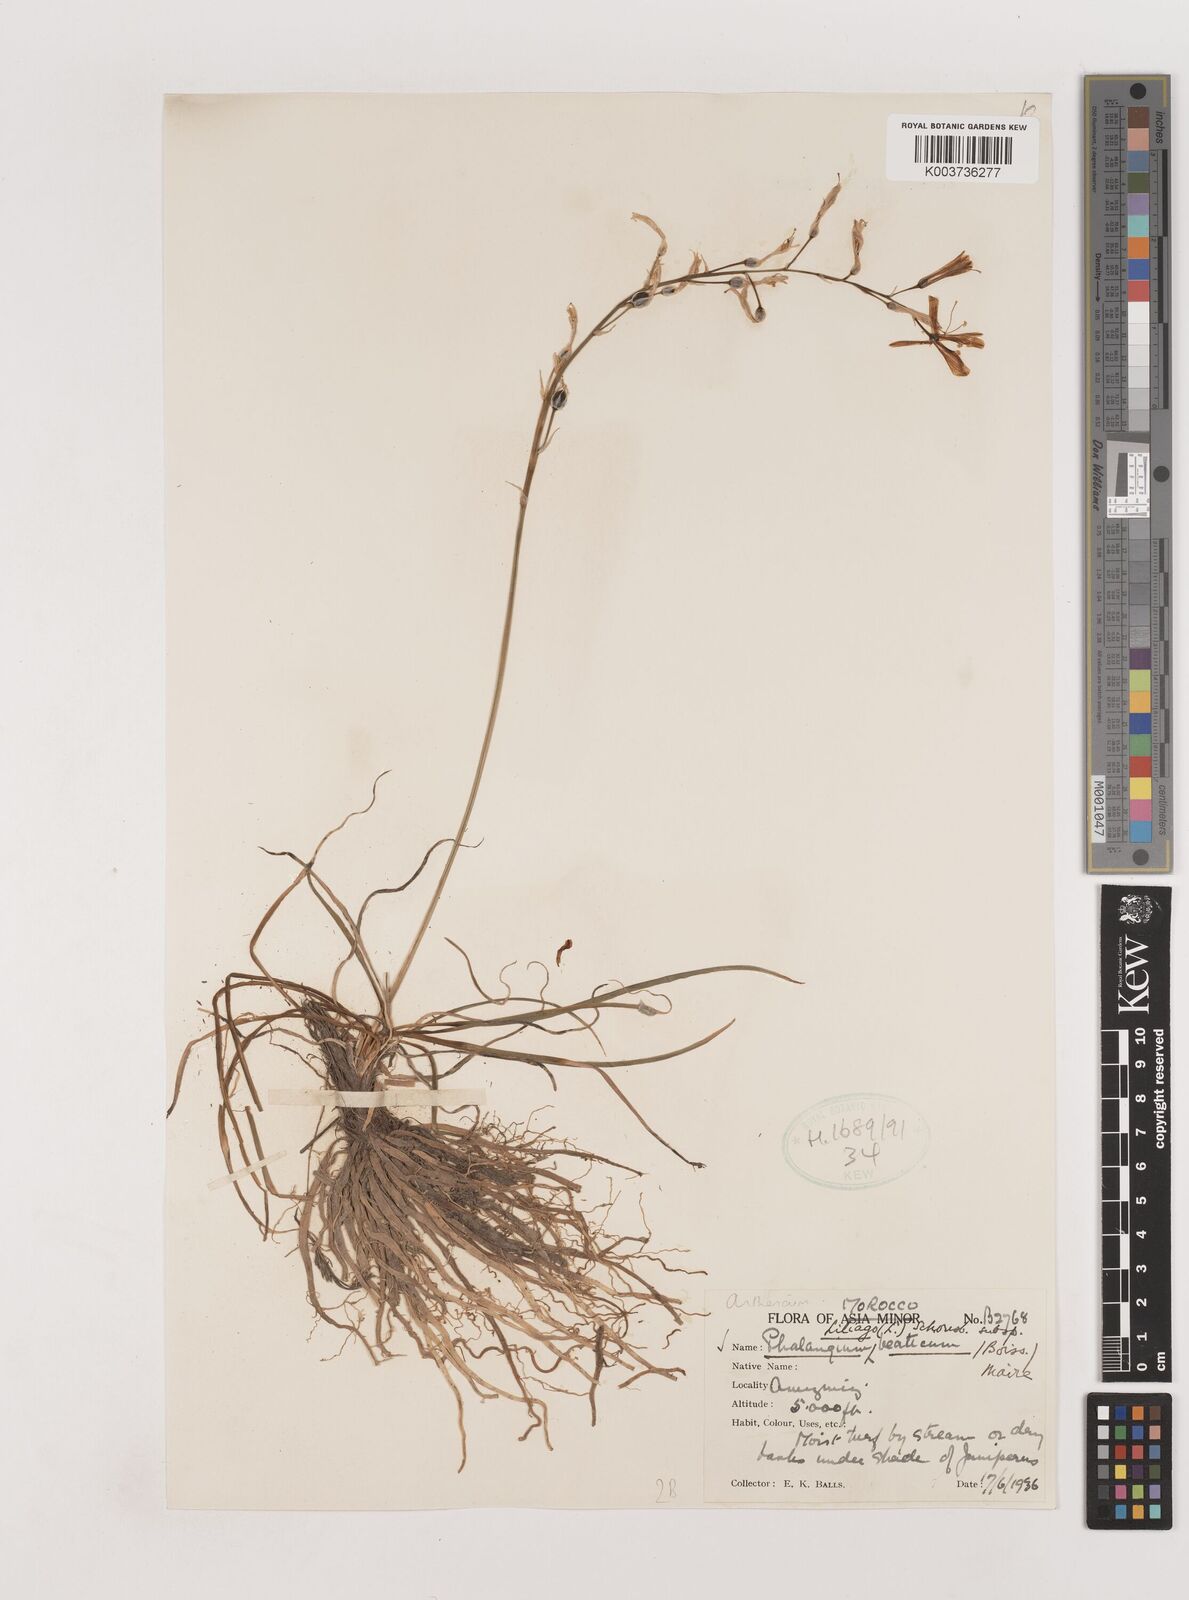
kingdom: Plantae
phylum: Tracheophyta
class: Liliopsida
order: Asparagales
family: Asparagaceae
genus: Anthericum
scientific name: Anthericum liliago
